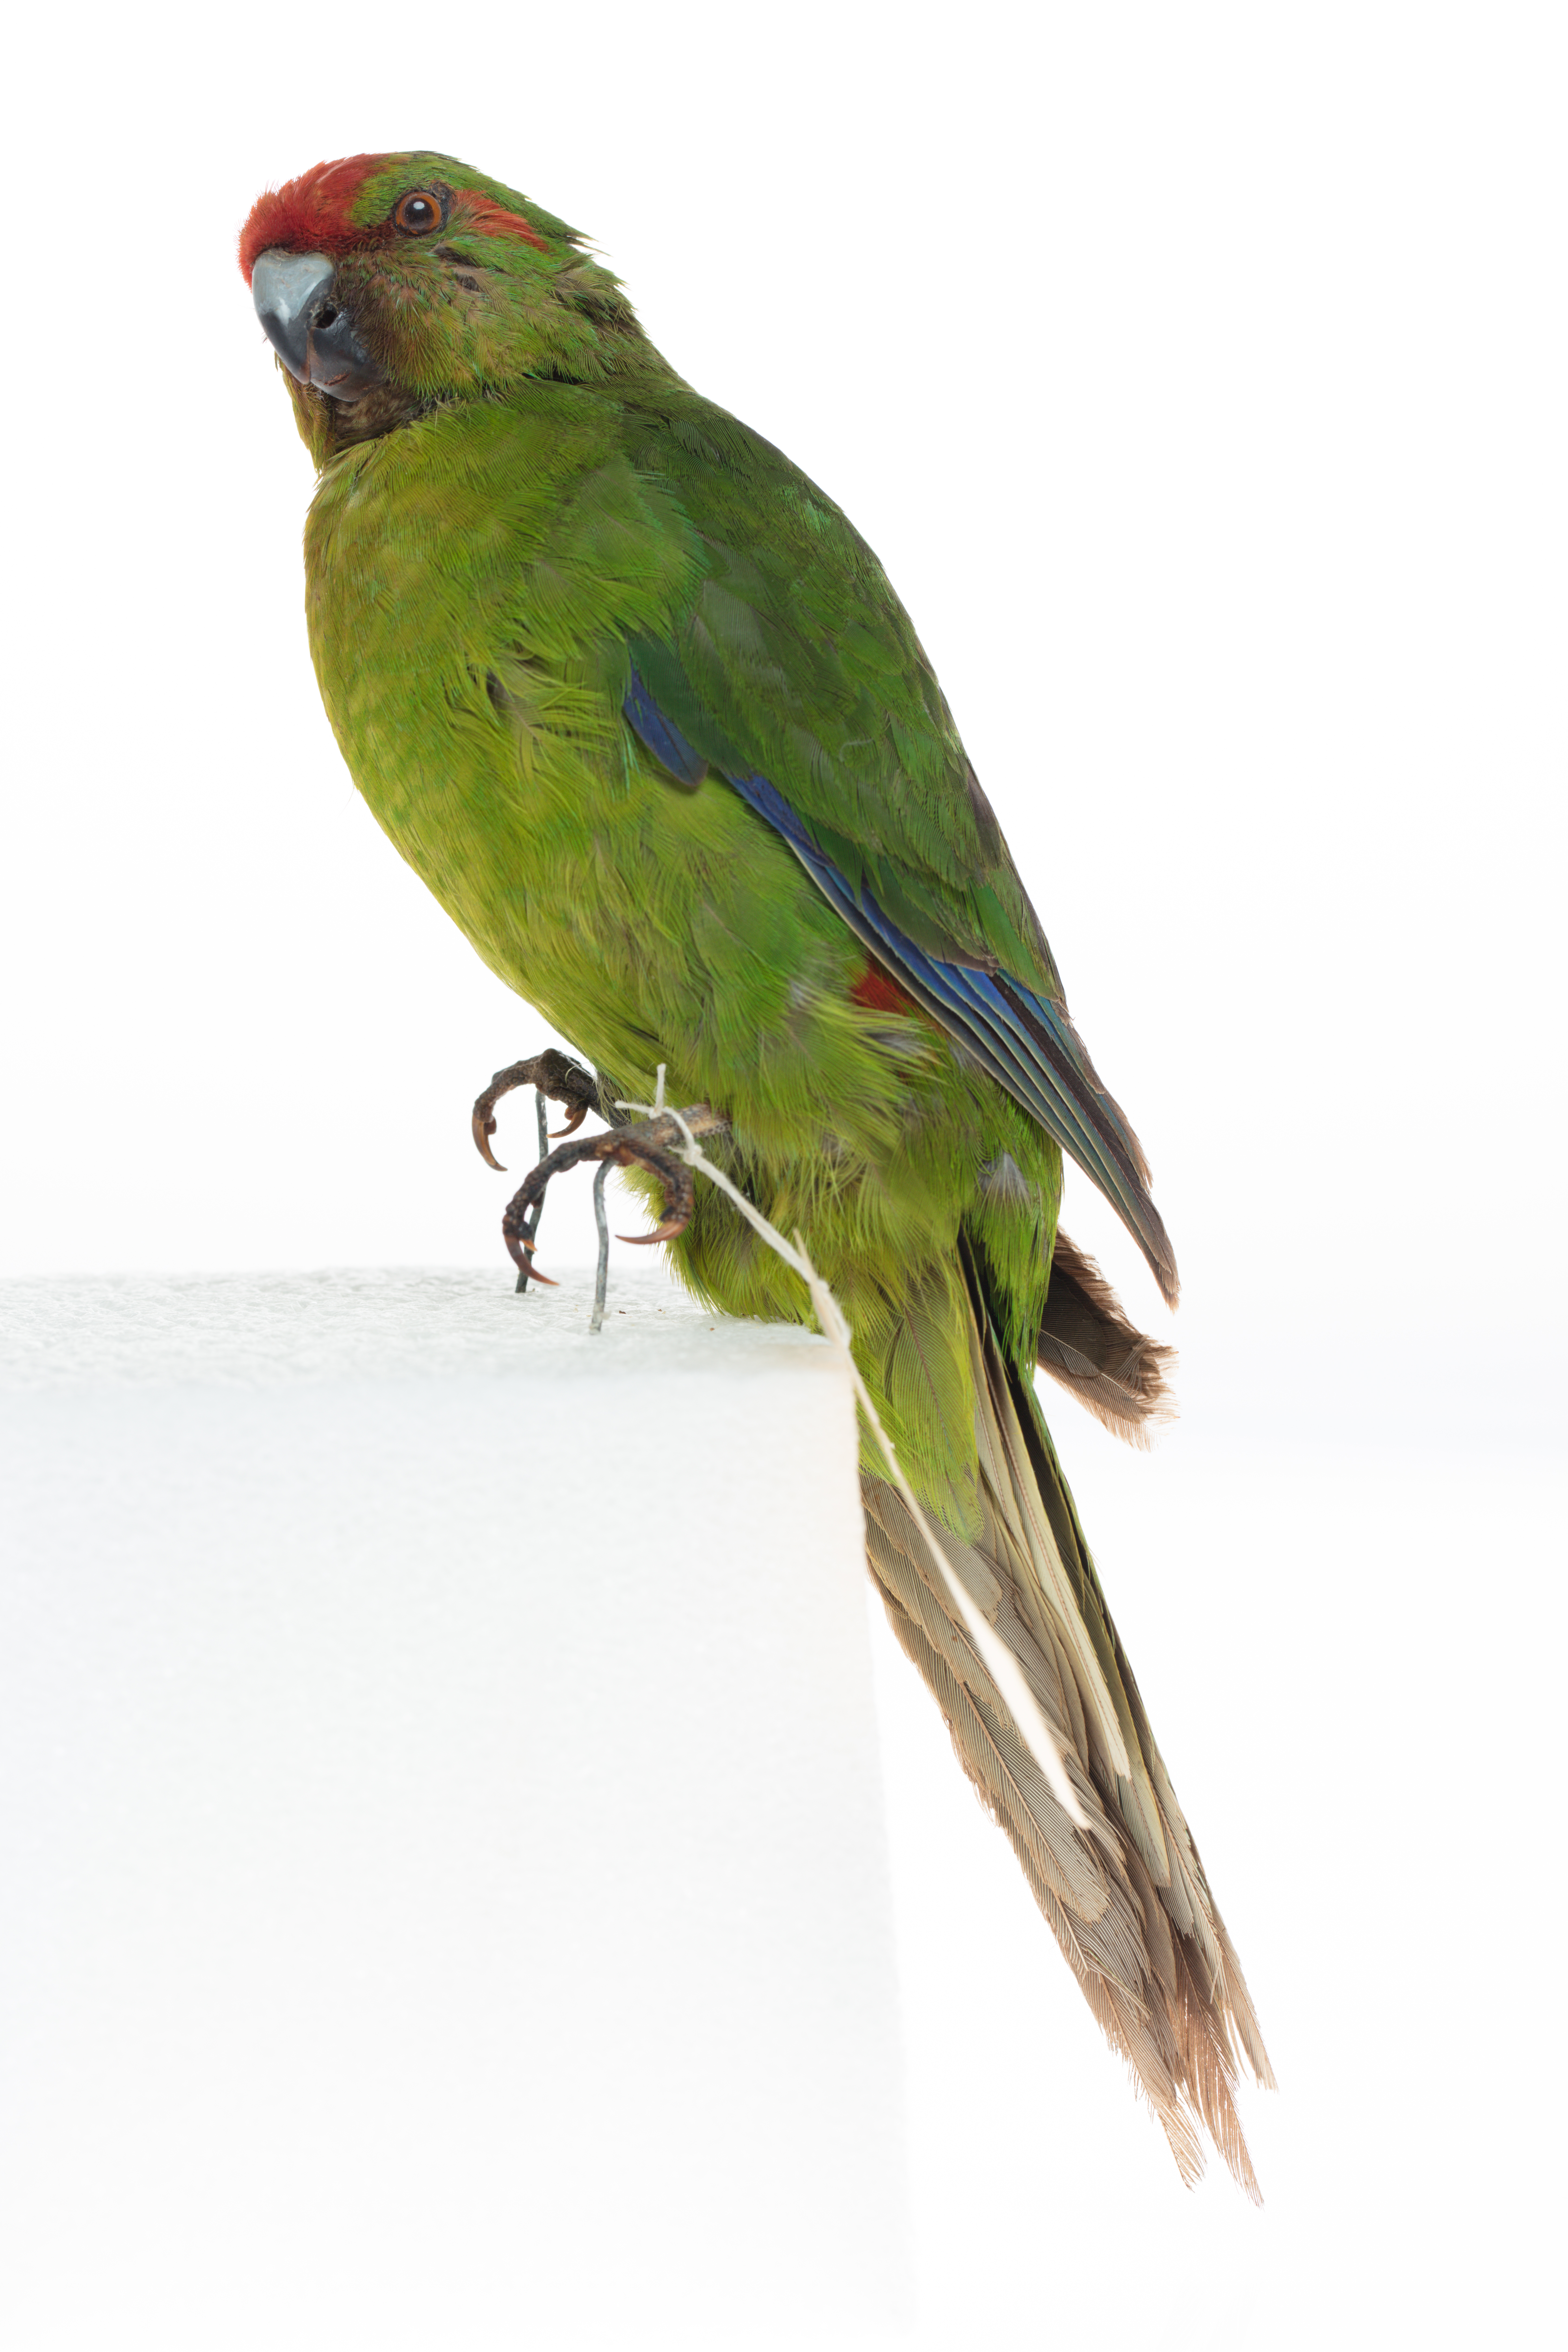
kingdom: Animalia
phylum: Chordata
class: Aves
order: Psittaciformes
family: Psittacidae
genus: Cyanoramphus
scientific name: Cyanoramphus novaezelandiae
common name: Red-fronted parakeet
